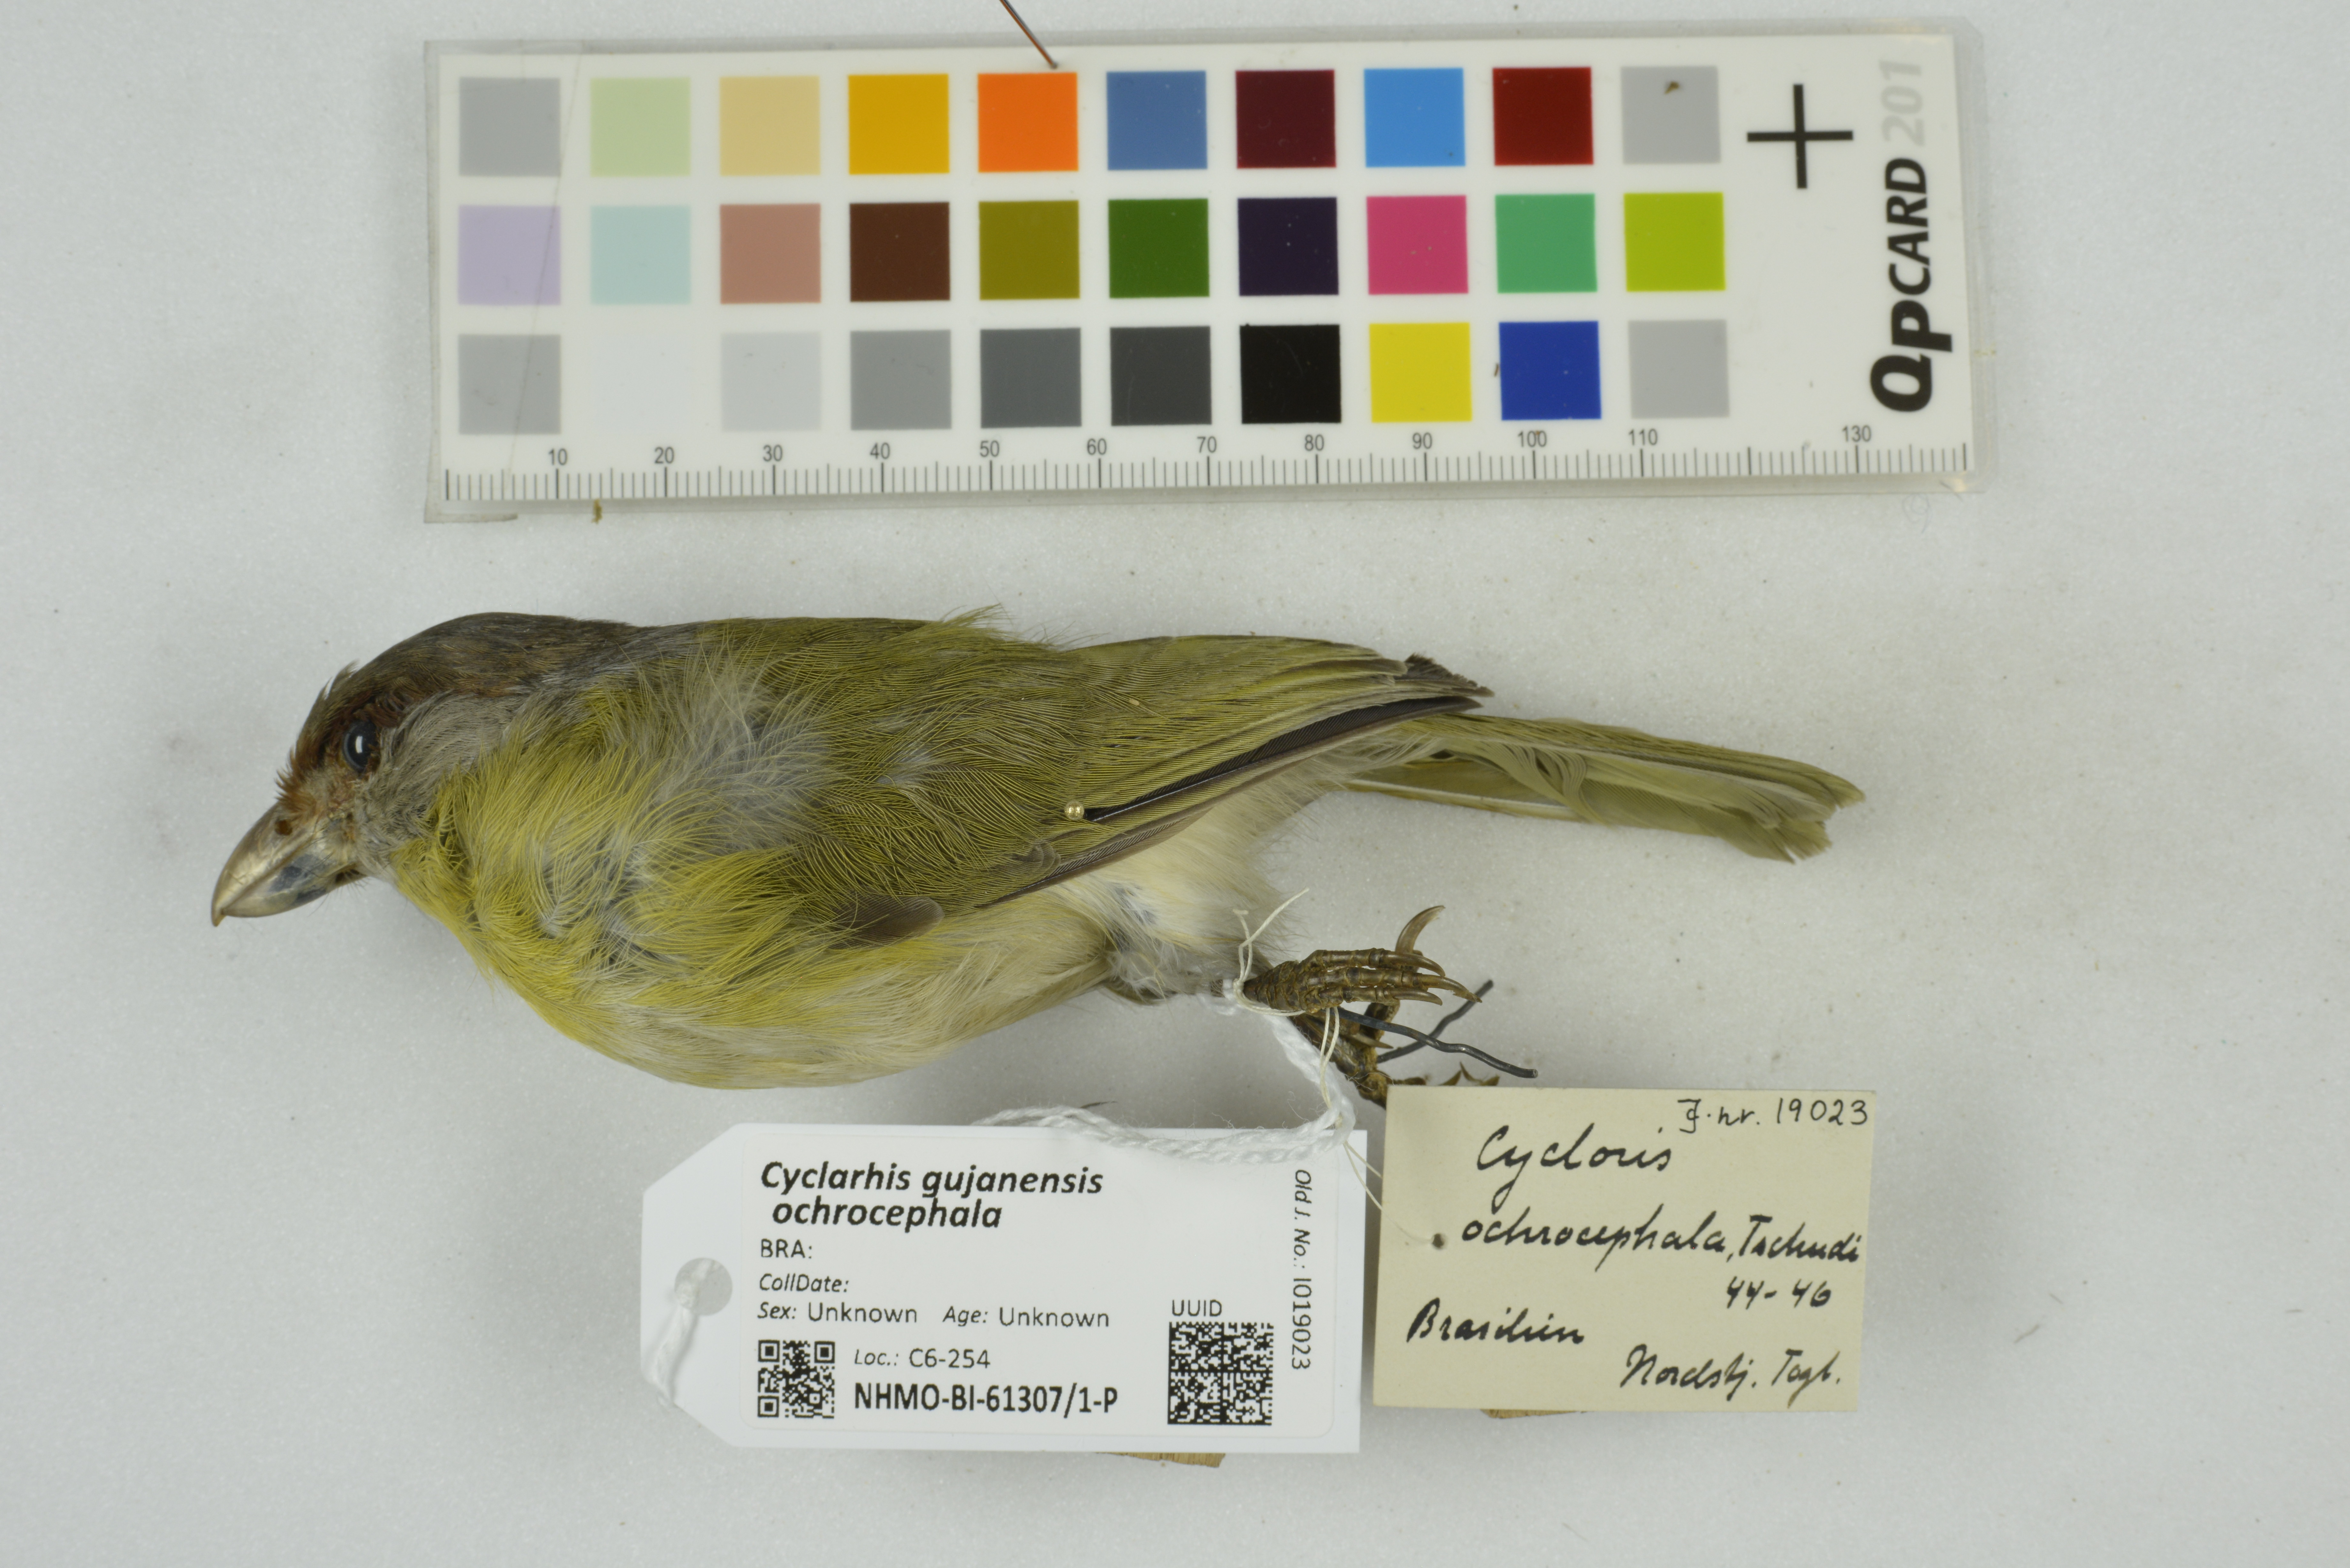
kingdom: Animalia
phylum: Chordata
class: Aves
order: Passeriformes
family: Vireonidae
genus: Cyclarhis
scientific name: Cyclarhis gujanensis
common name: Rufous-browed peppershrike
